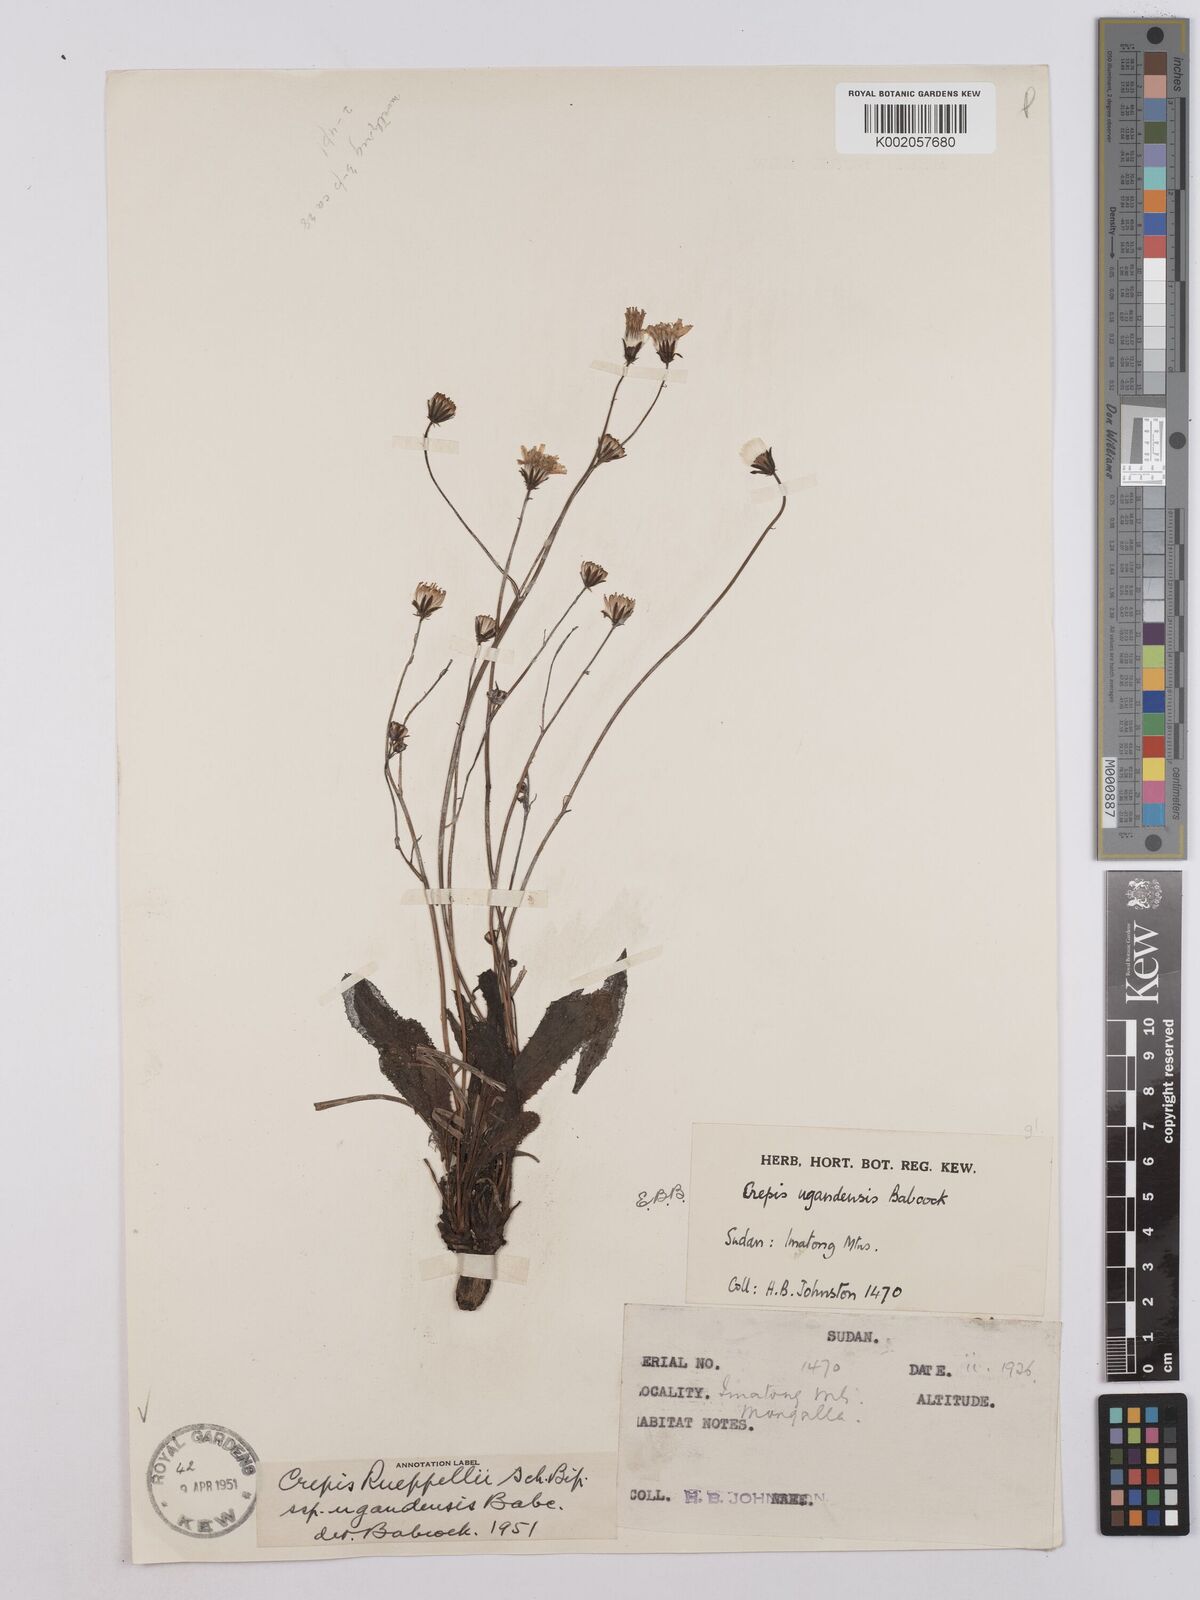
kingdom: Plantae
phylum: Tracheophyta
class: Magnoliopsida
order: Asterales
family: Asteraceae
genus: Crepis
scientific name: Crepis rueppellii
